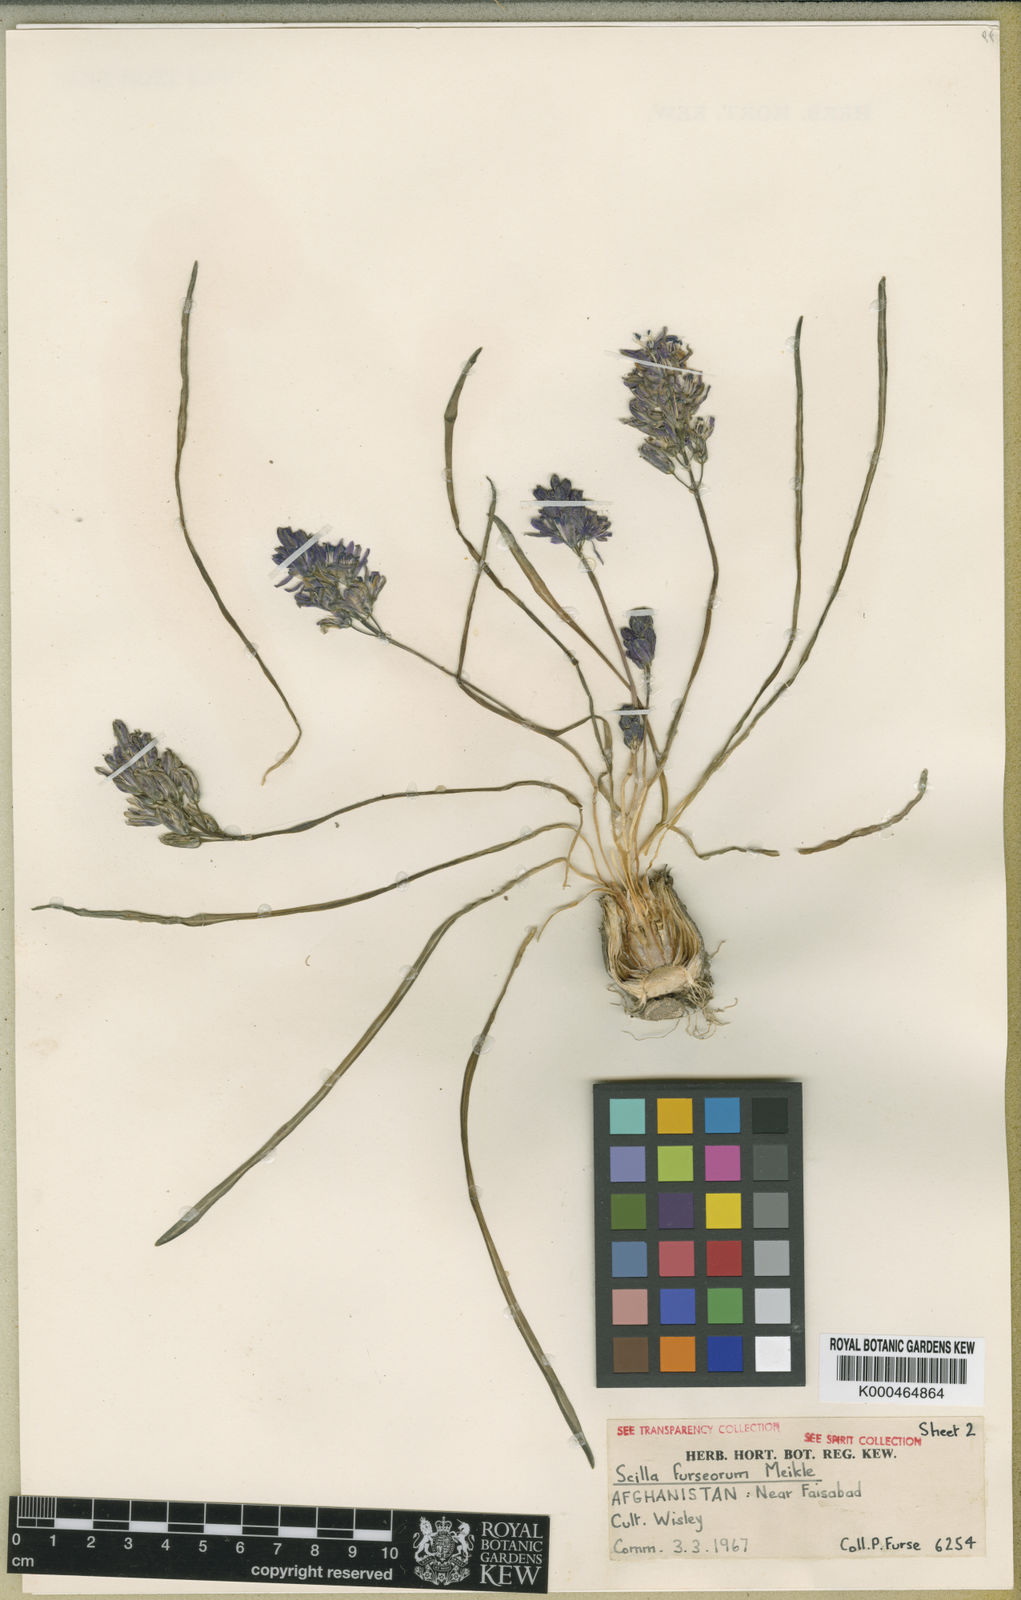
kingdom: Plantae
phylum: Tracheophyta
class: Liliopsida
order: Asparagales
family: Asparagaceae
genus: Fessia
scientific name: Fessia furseorum
